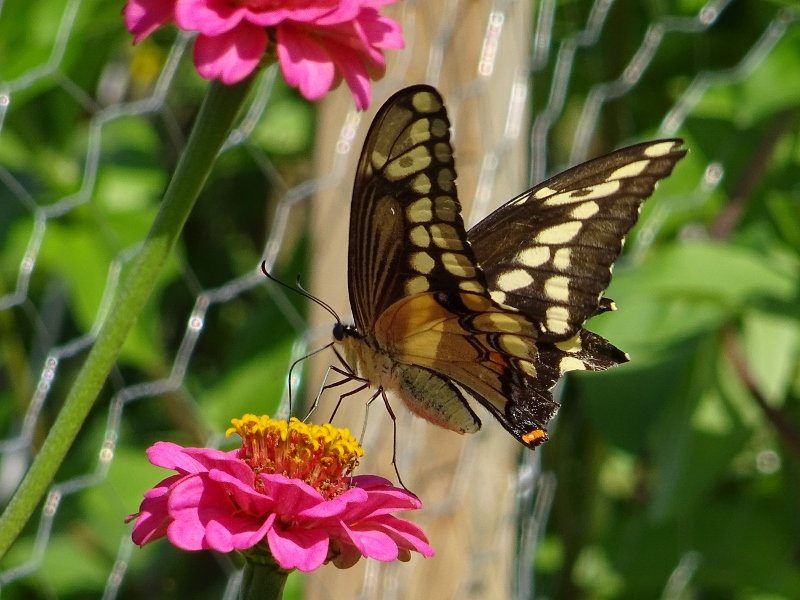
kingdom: Animalia
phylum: Arthropoda
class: Insecta
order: Lepidoptera
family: Papilionidae
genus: Papilio
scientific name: Papilio cresphontes
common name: Eastern Giant Swallowtail
